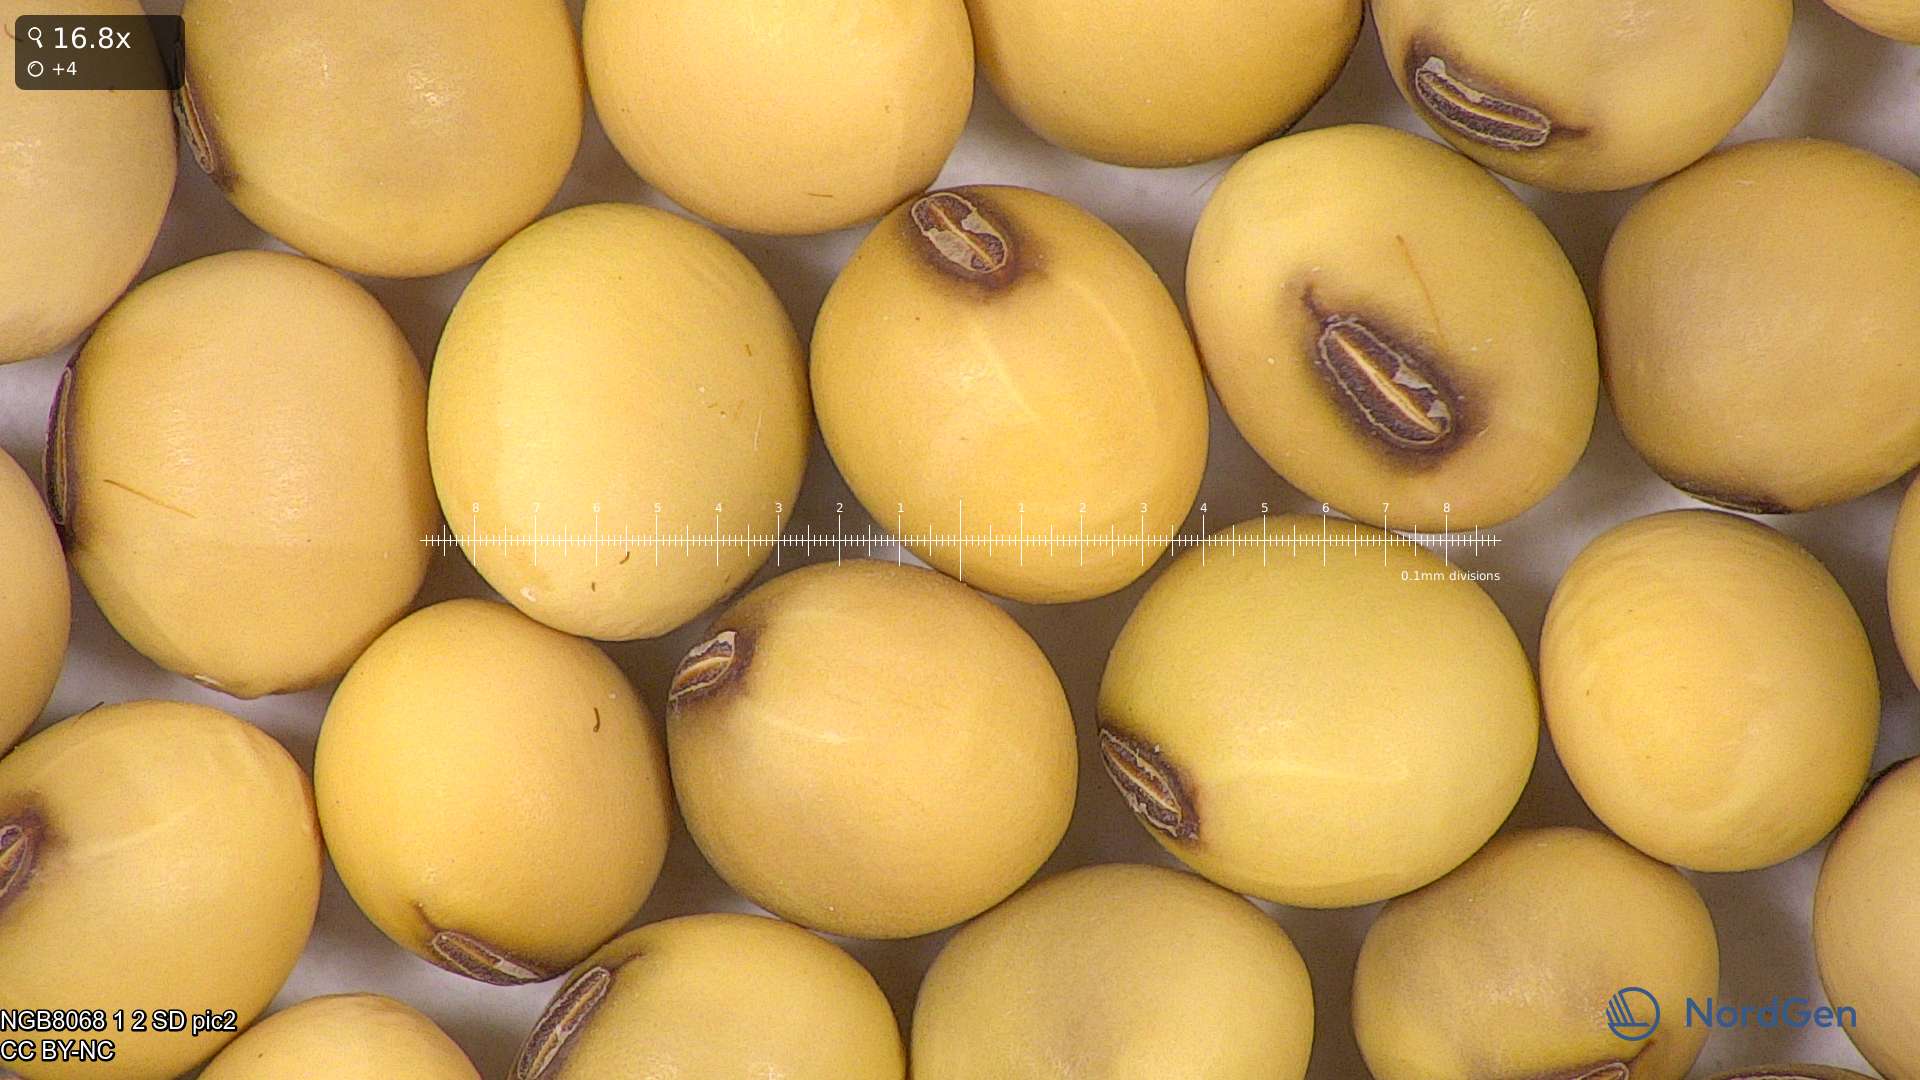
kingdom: Plantae
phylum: Tracheophyta
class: Magnoliopsida
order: Fabales
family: Fabaceae
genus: Glycine
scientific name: Glycine max
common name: Soya-bean
